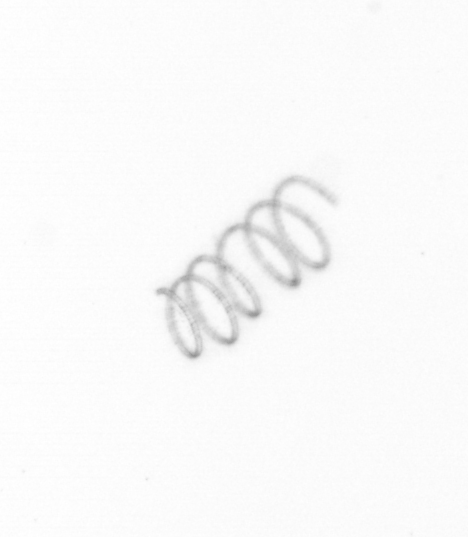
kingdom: Chromista
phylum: Ochrophyta
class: Bacillariophyceae
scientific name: Bacillariophyceae
